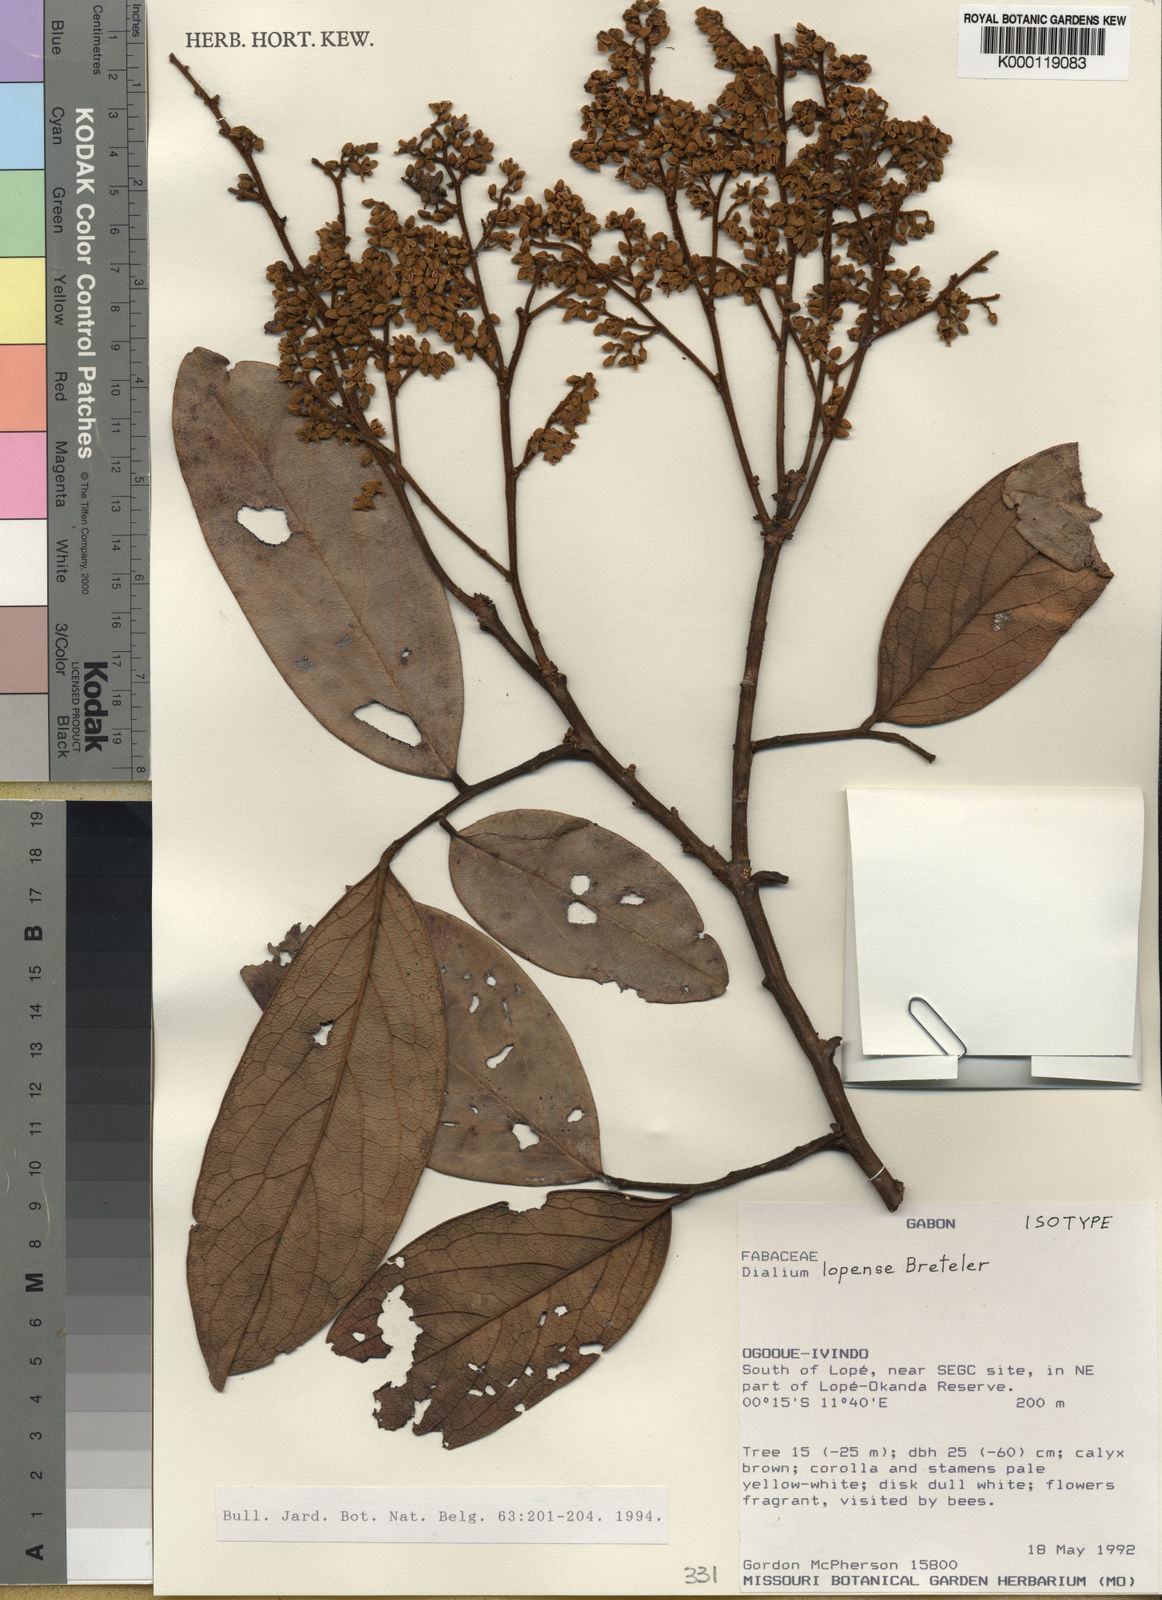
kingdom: Plantae
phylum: Tracheophyta
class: Magnoliopsida
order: Fabales
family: Fabaceae
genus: Dialium
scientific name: Dialium lopense
